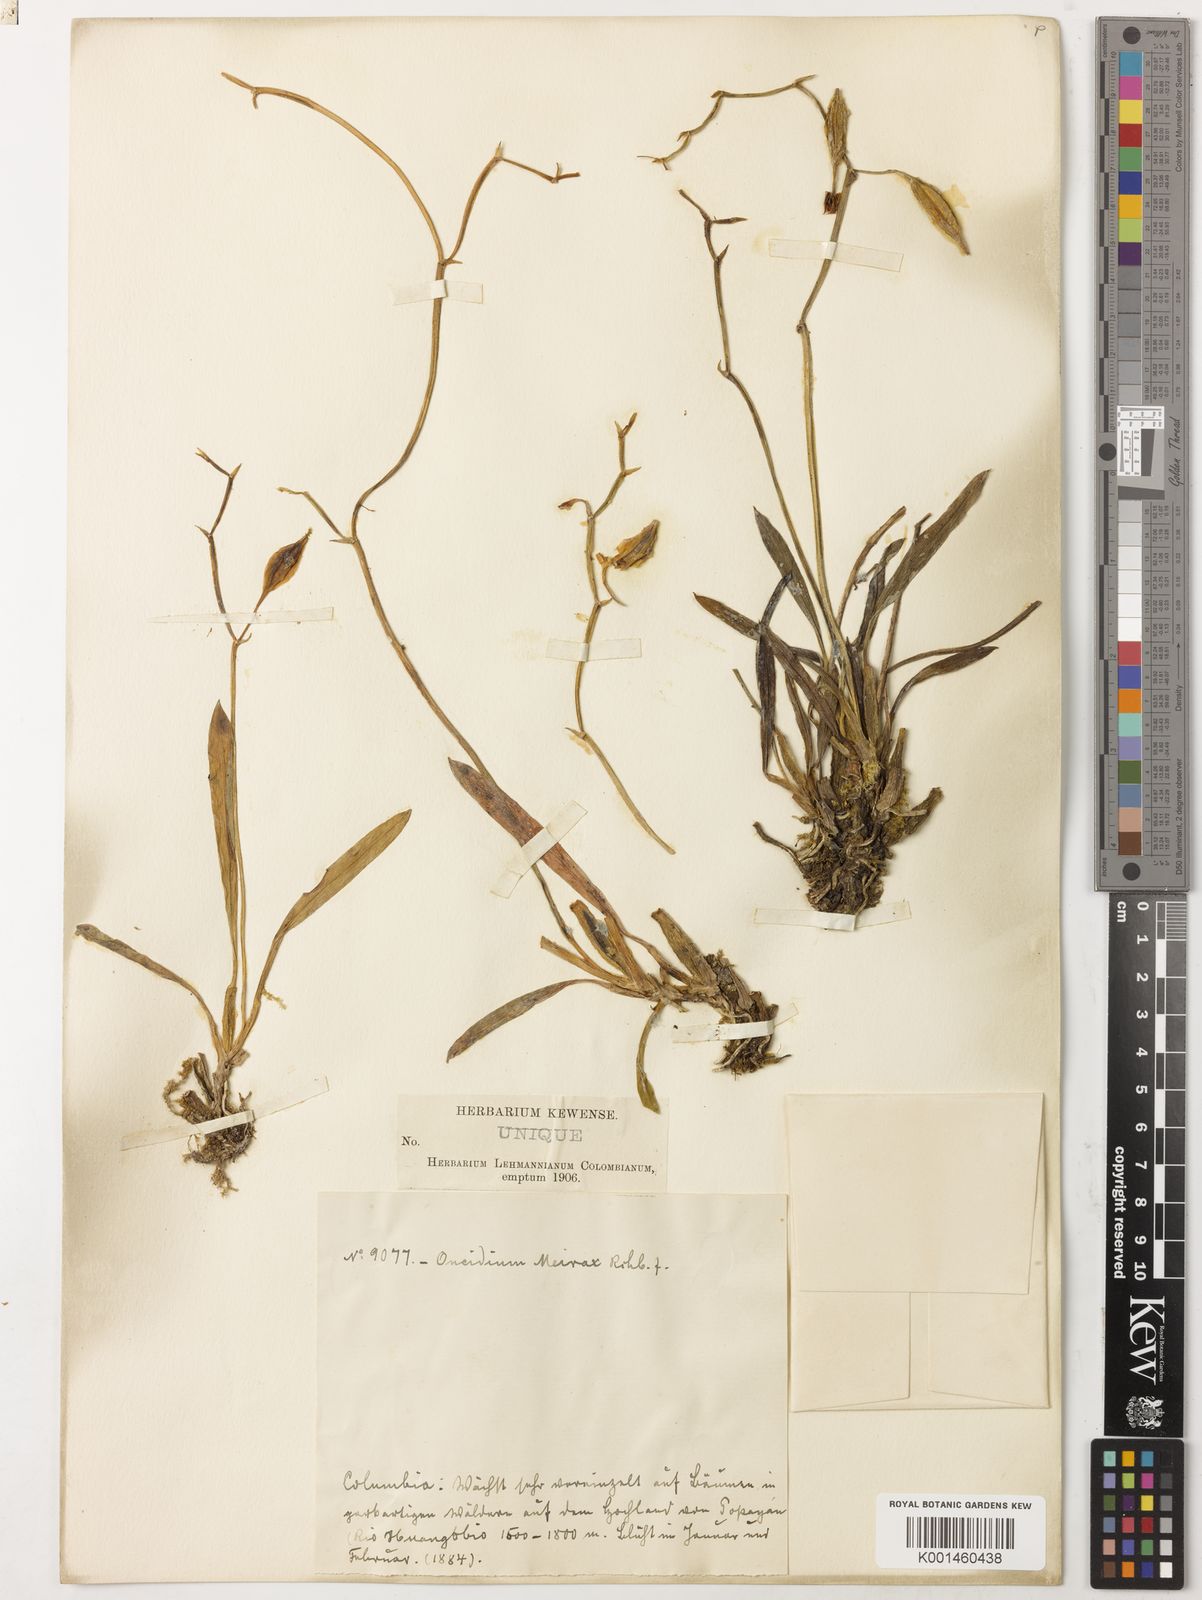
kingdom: Plantae
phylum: Tracheophyta
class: Liliopsida
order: Asparagales
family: Orchidaceae
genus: Cyrtochilum
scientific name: Cyrtochilum
